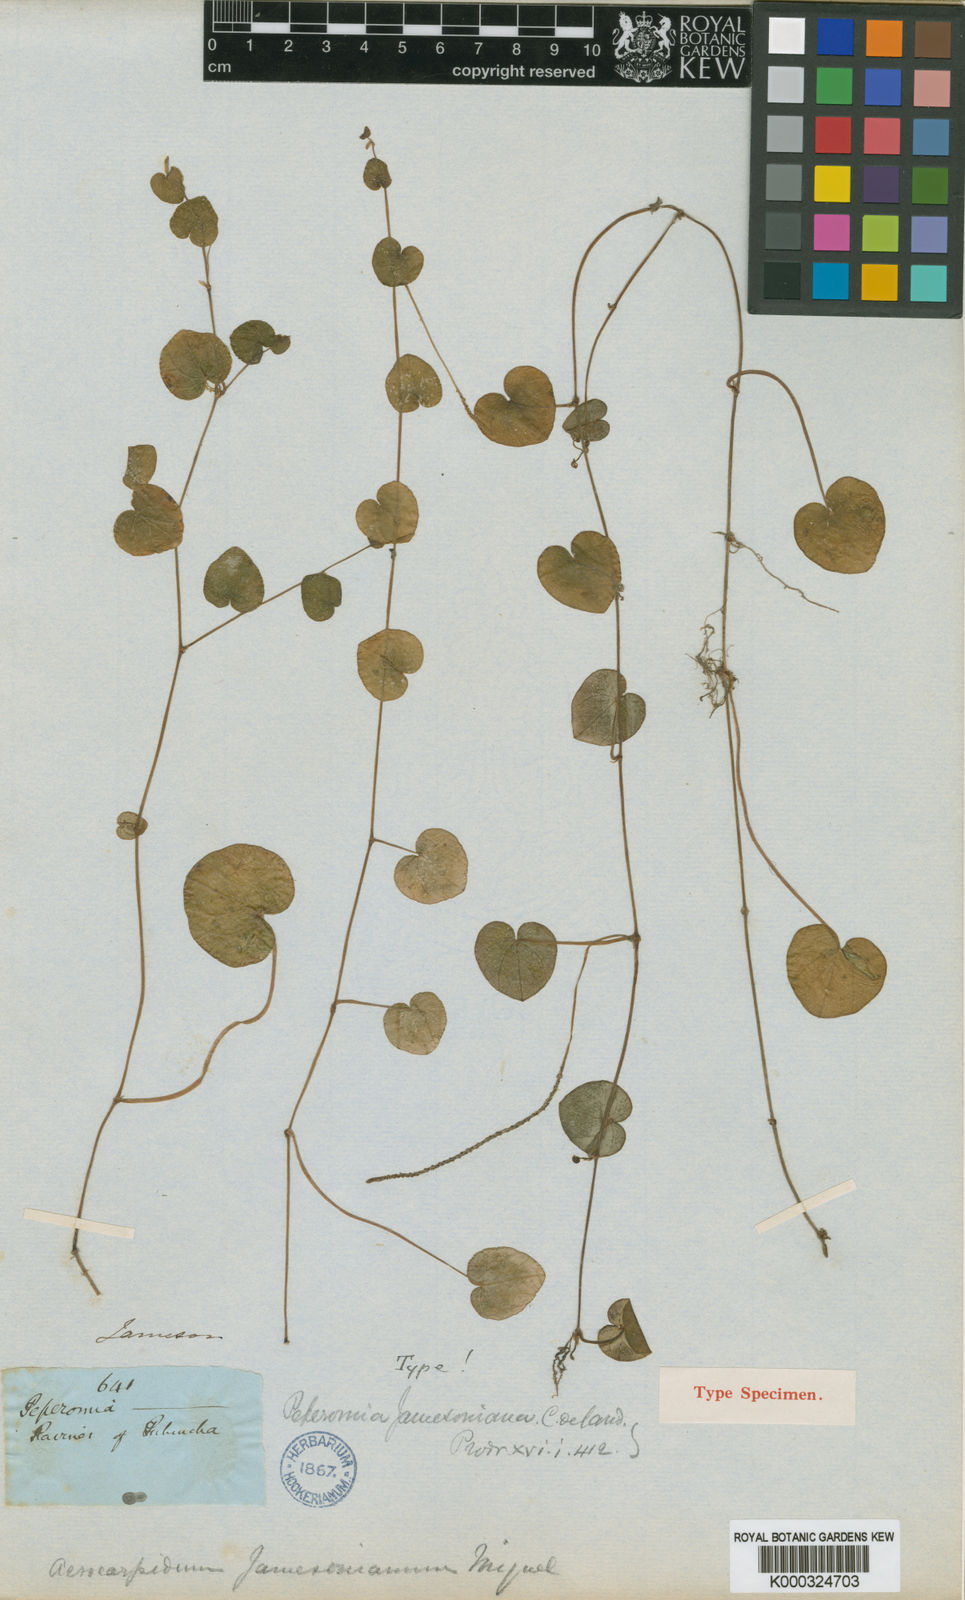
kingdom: Plantae
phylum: Tracheophyta
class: Magnoliopsida
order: Piperales
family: Piperaceae
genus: Peperomia
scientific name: Peperomia jamesoniana
